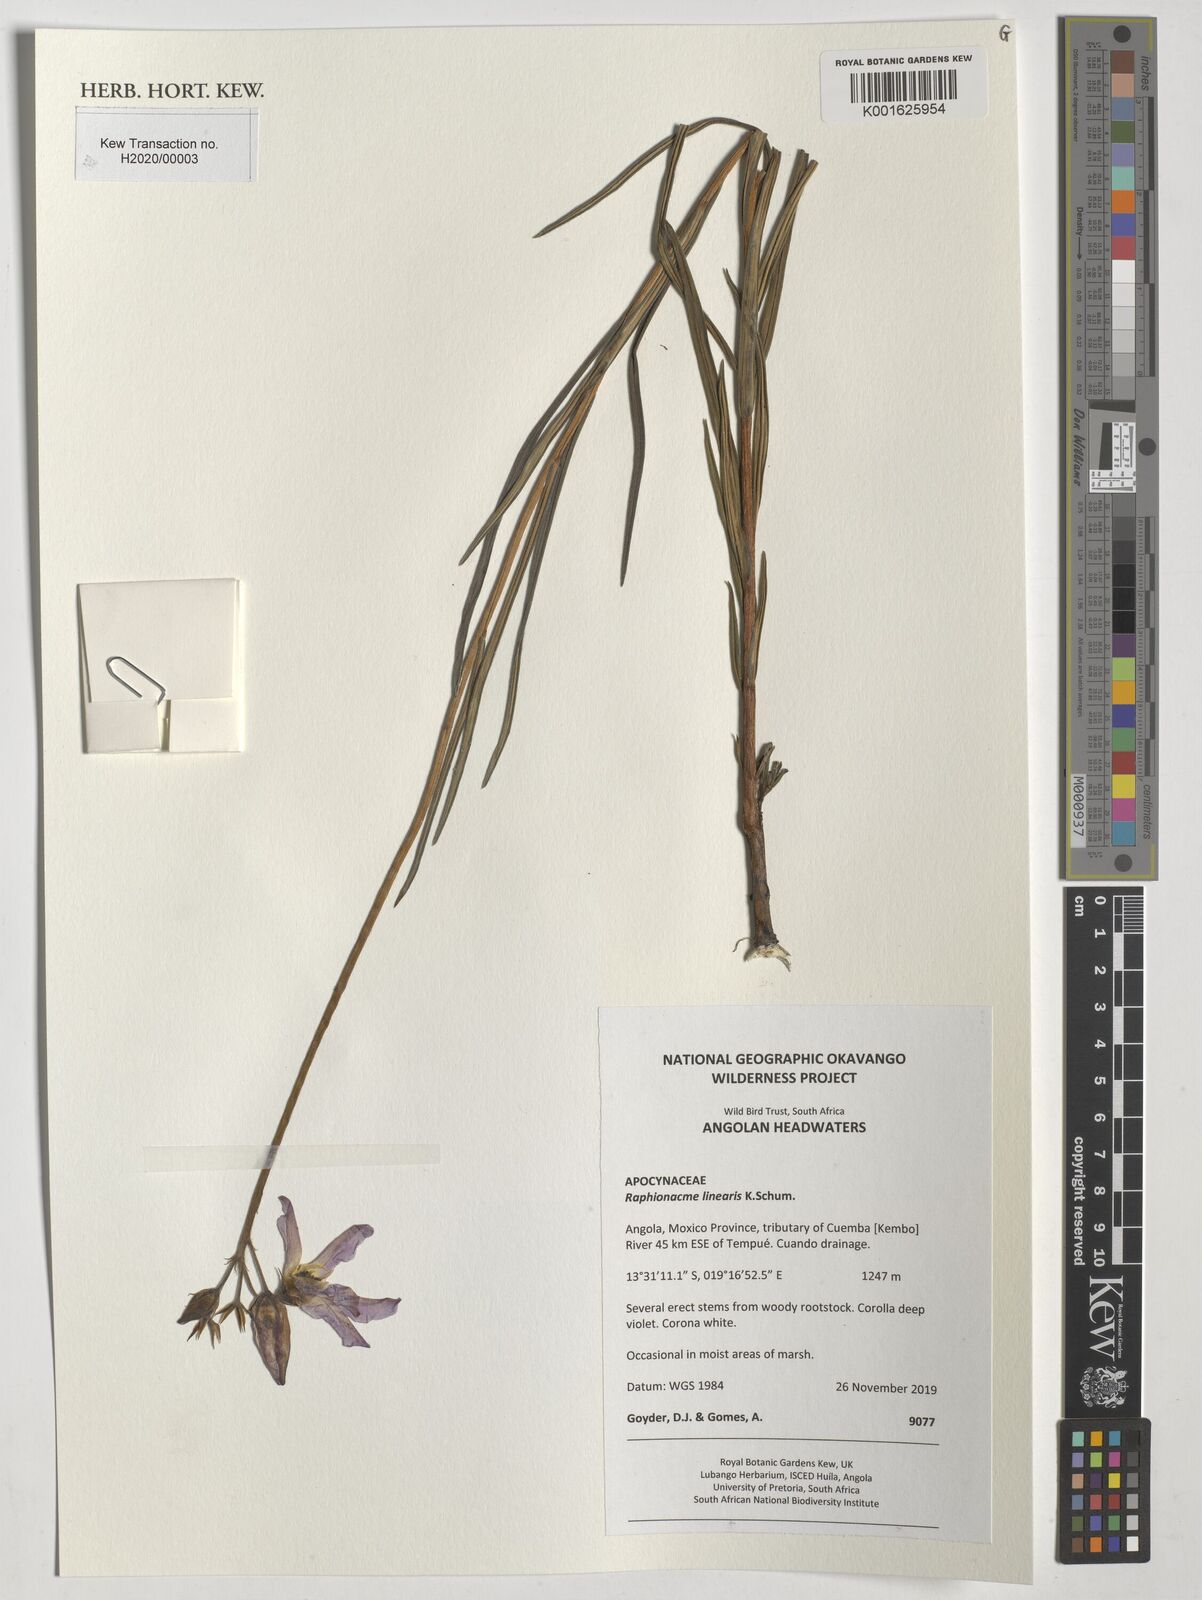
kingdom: Plantae
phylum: Tracheophyta
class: Magnoliopsida
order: Gentianales
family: Apocynaceae
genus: Raphionacme
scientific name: Raphionacme linearis
